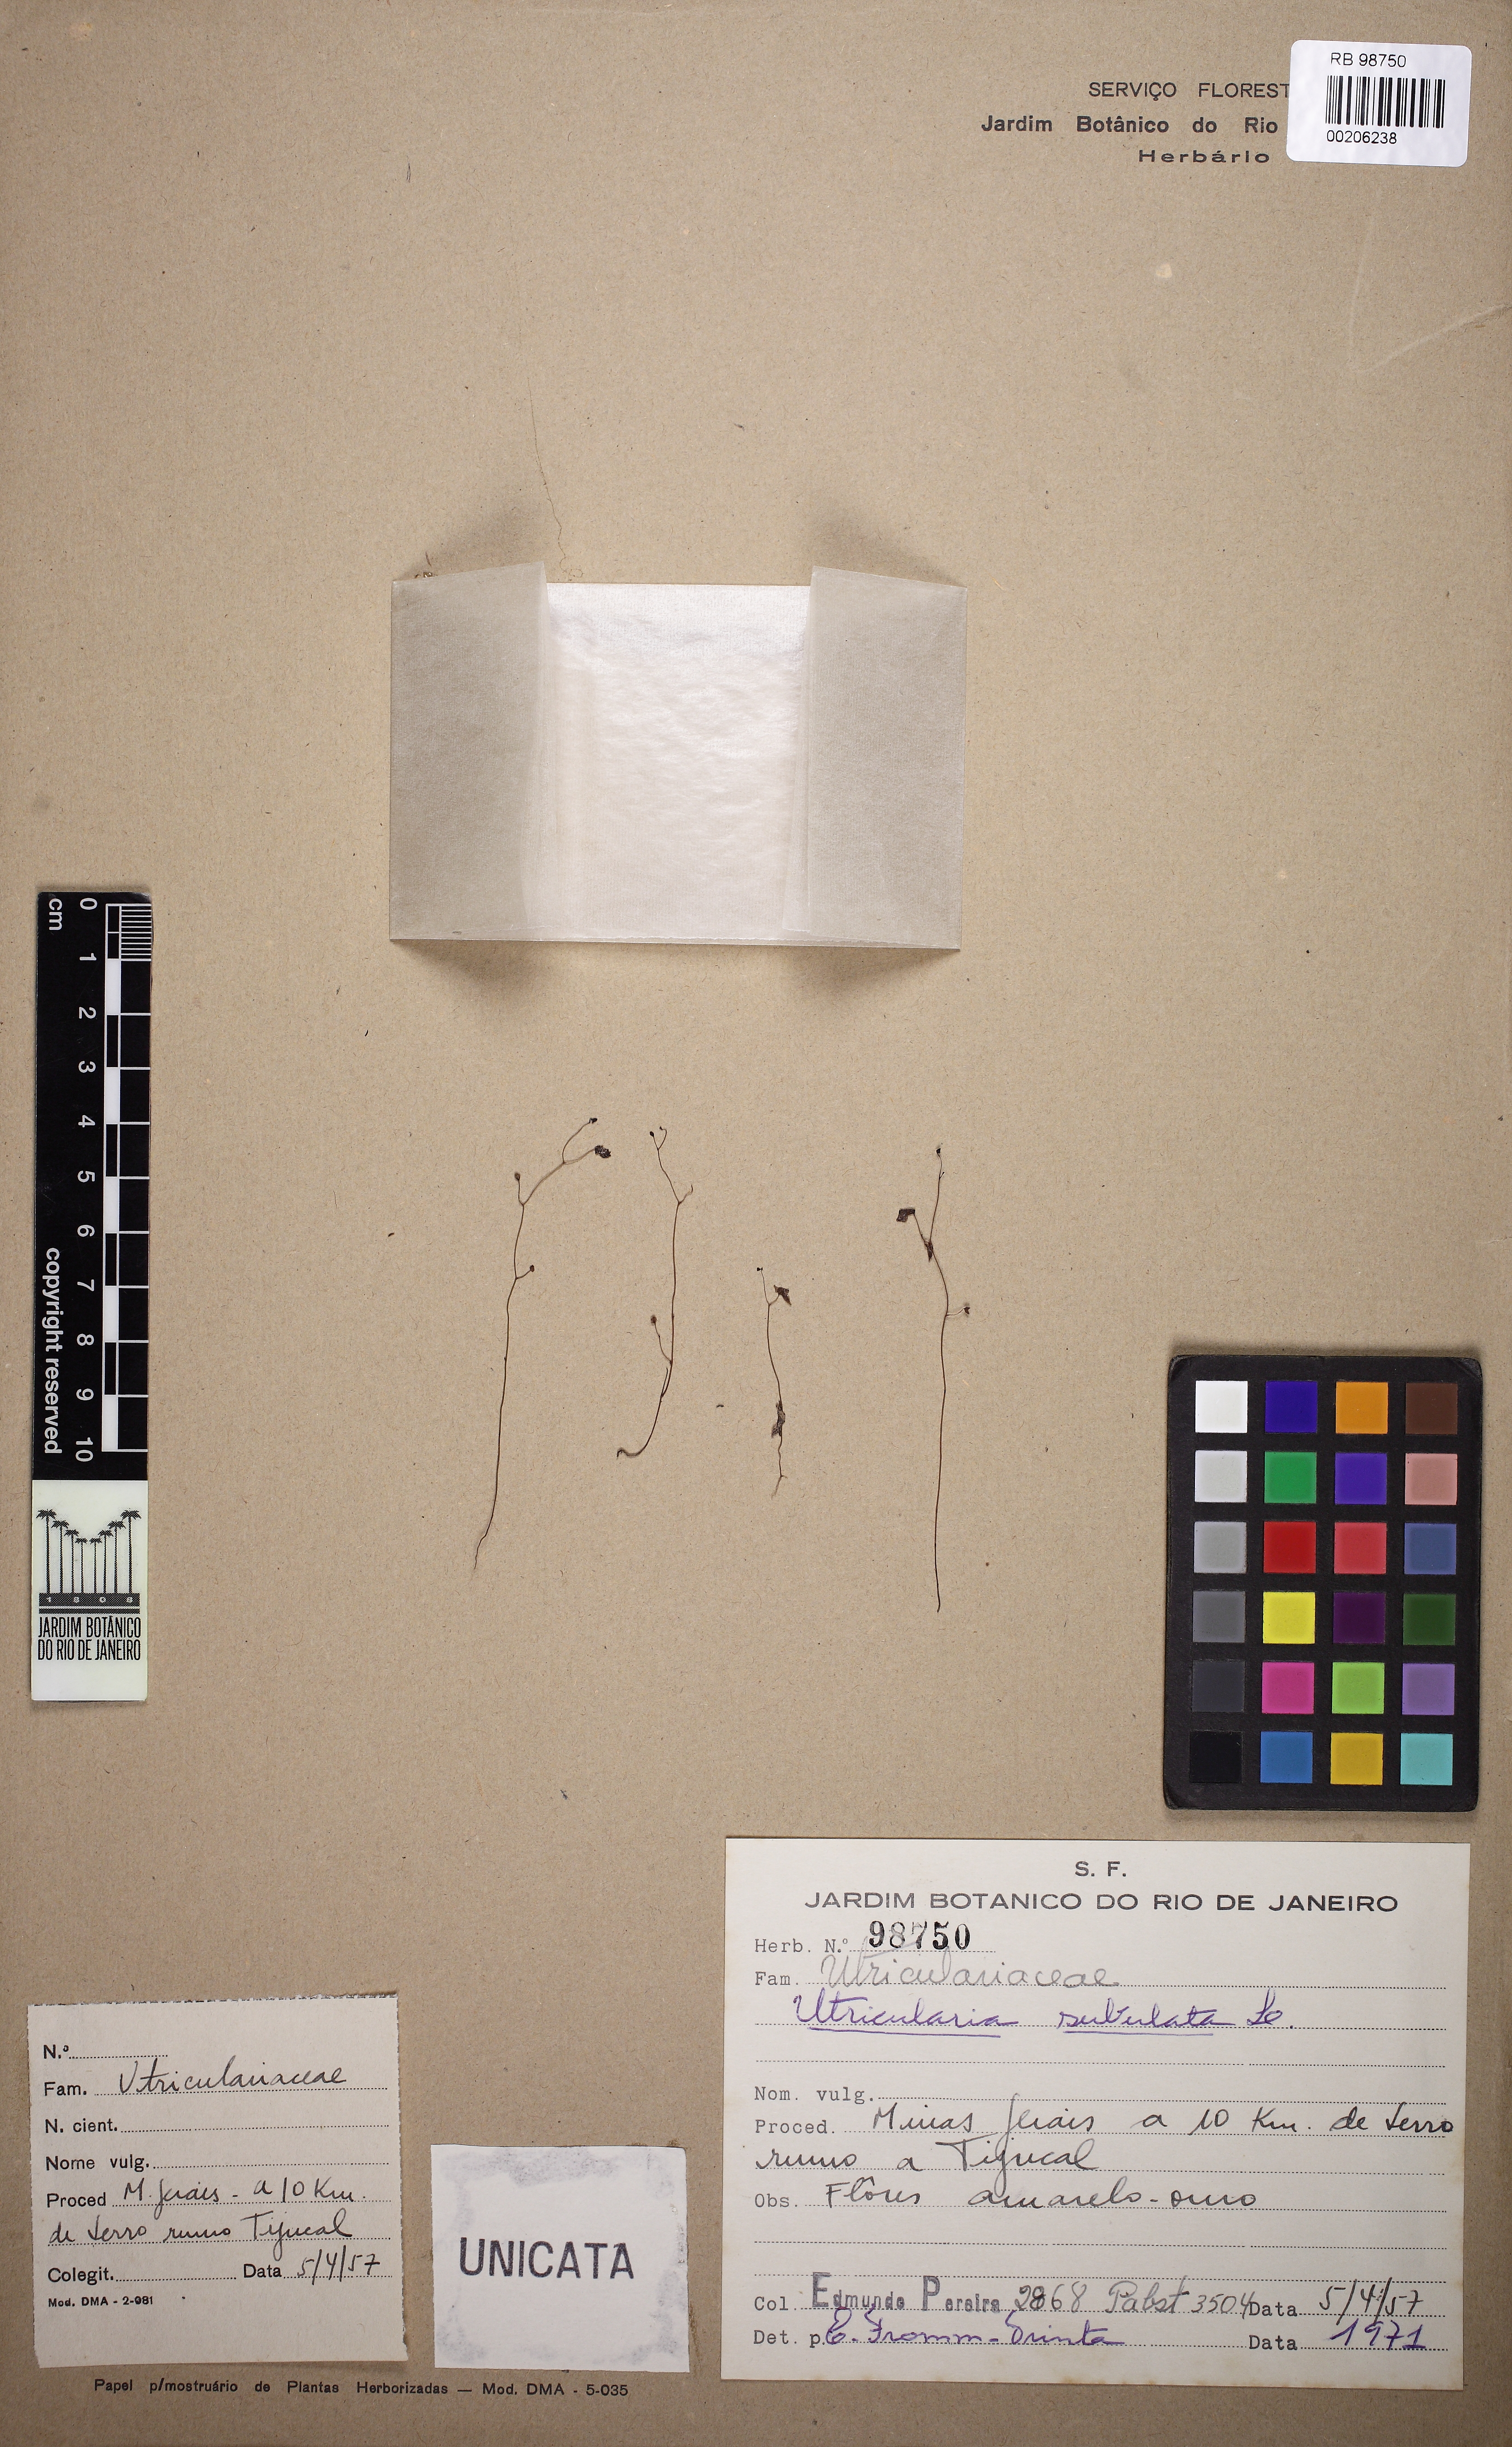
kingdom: Plantae
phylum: Tracheophyta
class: Magnoliopsida
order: Lamiales
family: Lentibulariaceae
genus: Utricularia
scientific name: Utricularia subulata
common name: Tiny bladderwort
